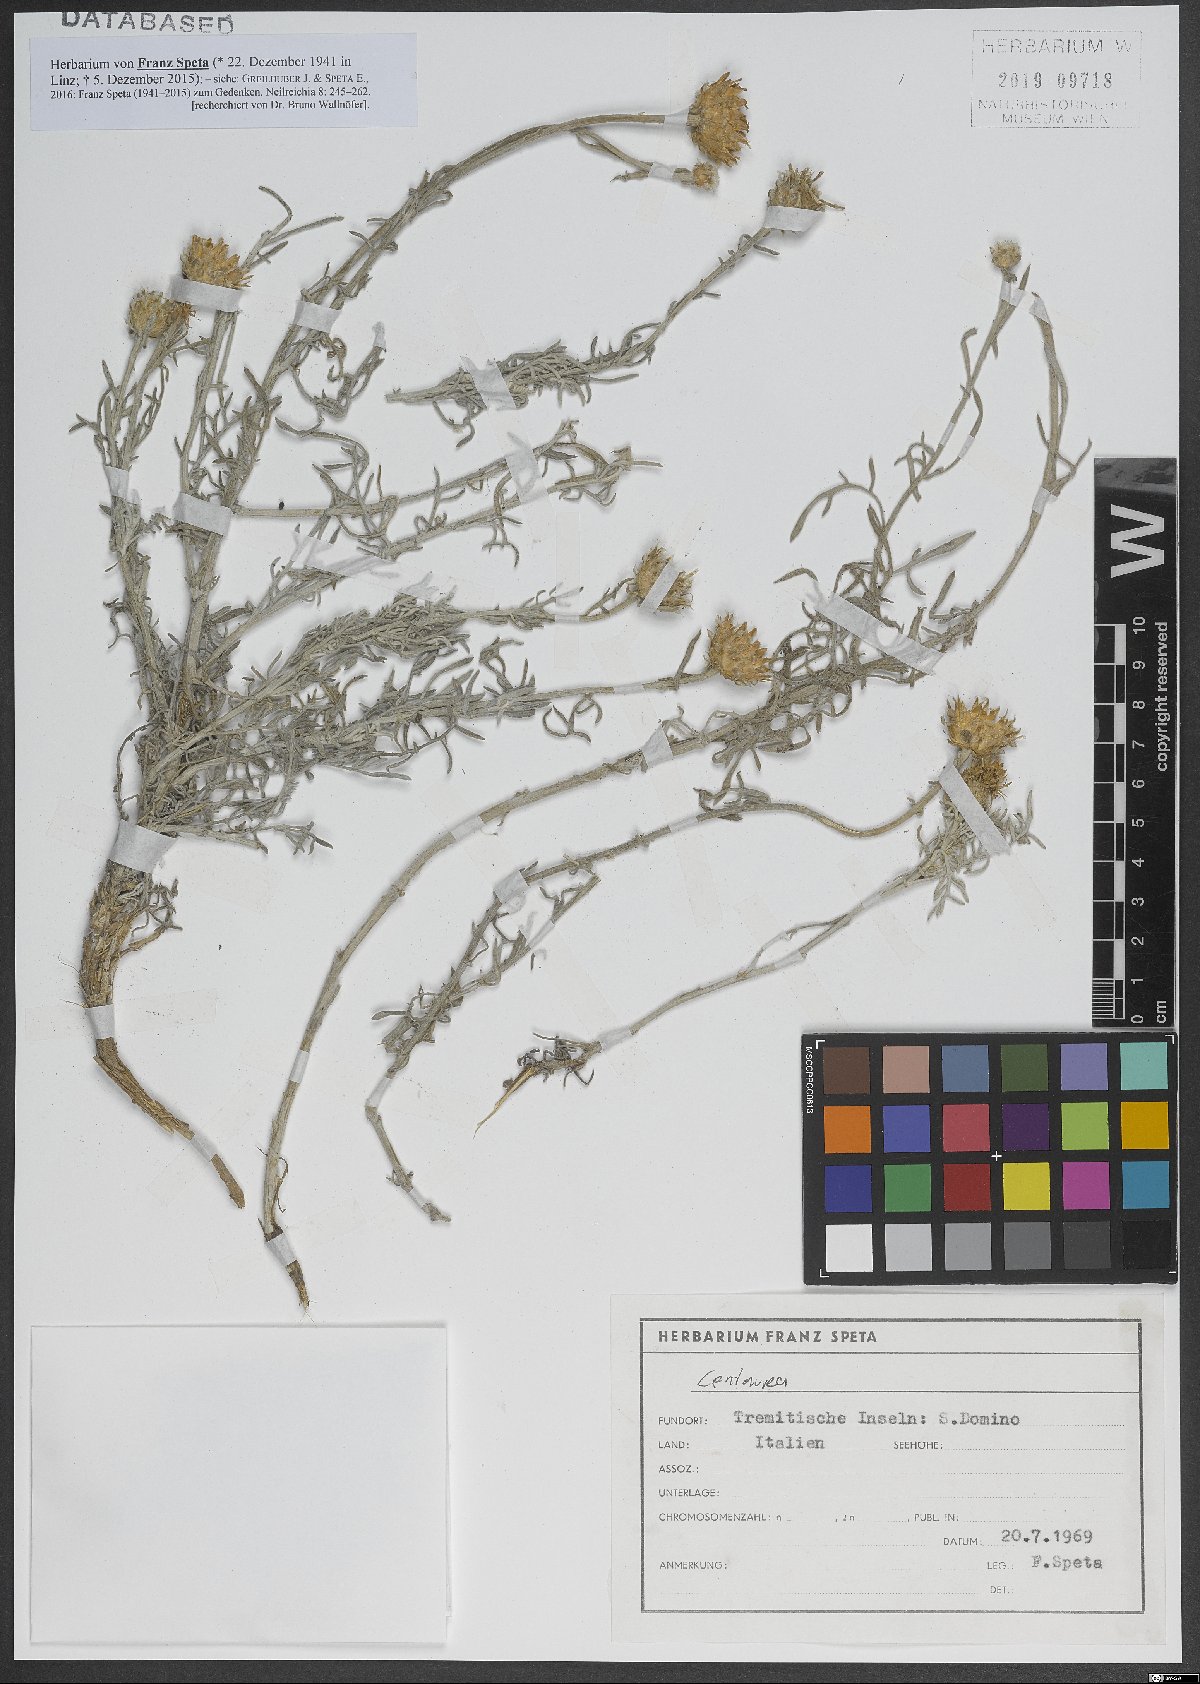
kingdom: Plantae
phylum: Tracheophyta
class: Magnoliopsida
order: Asterales
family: Asteraceae
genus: Centaurea
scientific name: Centaurea
